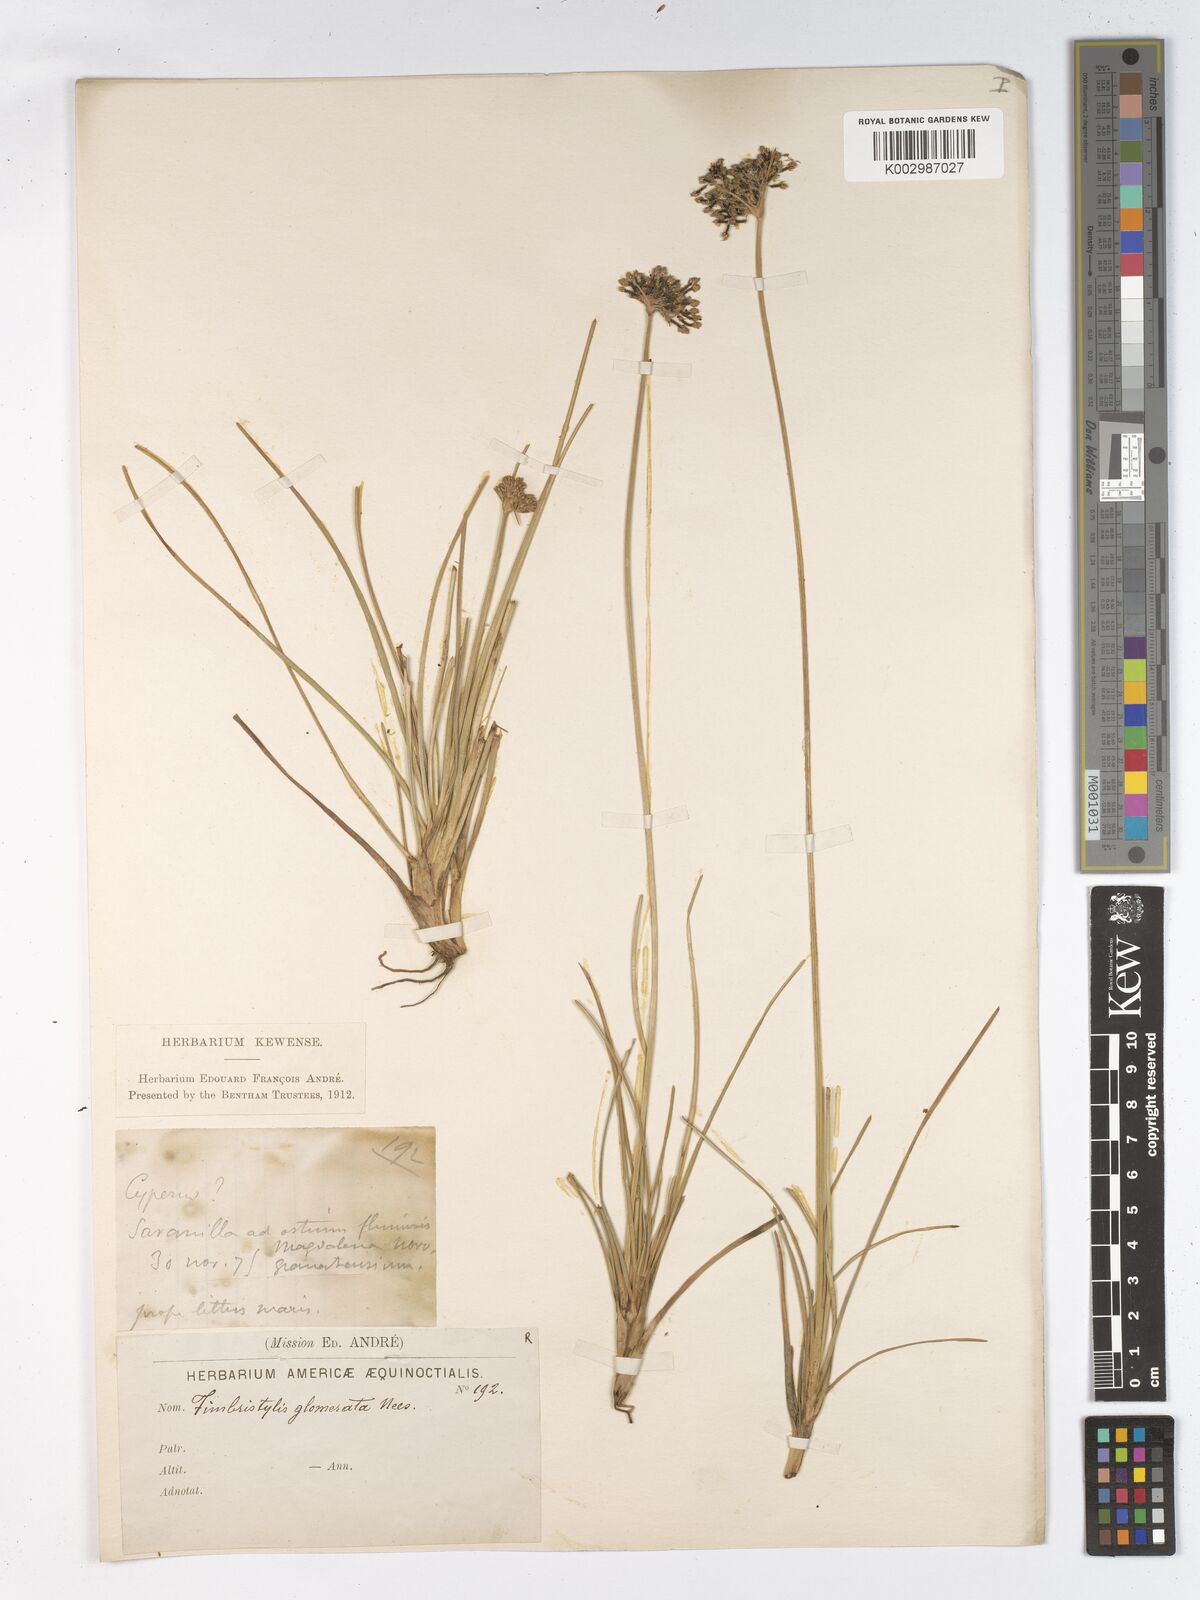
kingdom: Plantae
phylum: Tracheophyta
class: Liliopsida
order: Poales
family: Cyperaceae
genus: Fimbristylis
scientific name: Fimbristylis cymosa
